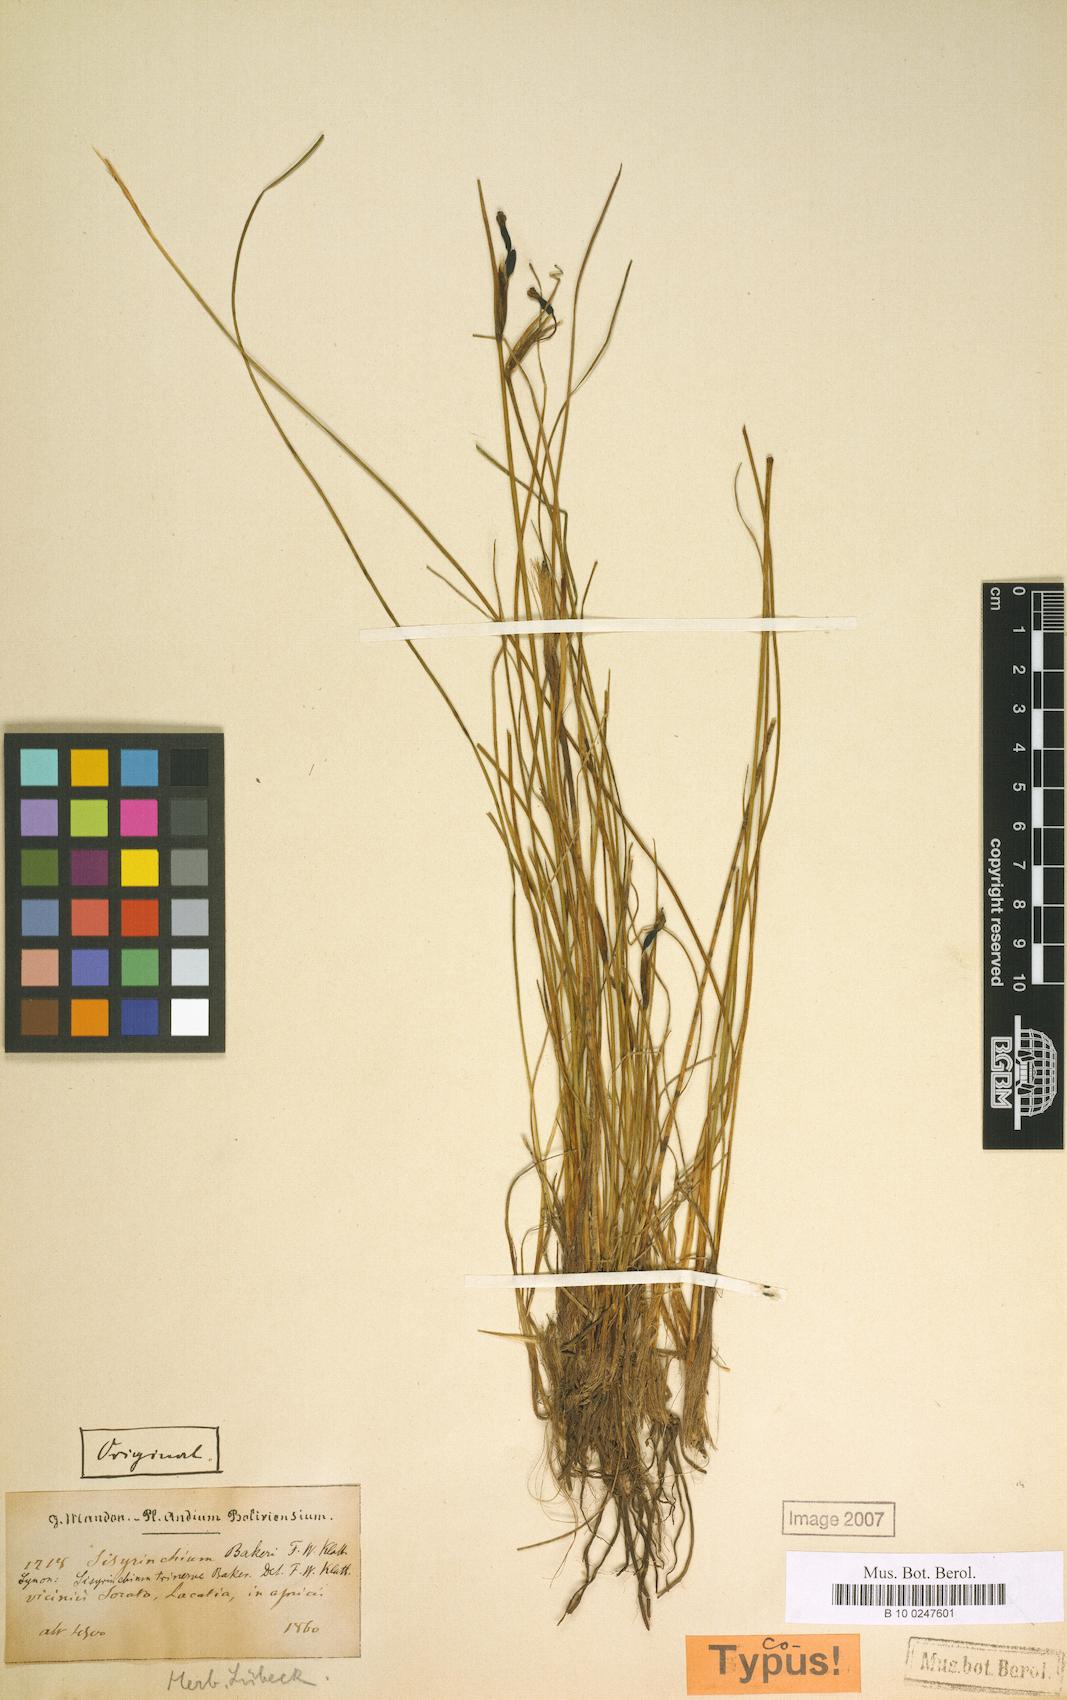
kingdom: Plantae
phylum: Tracheophyta
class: Liliopsida
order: Asparagales
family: Iridaceae
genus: Olsynium
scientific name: Olsynium trinerve
